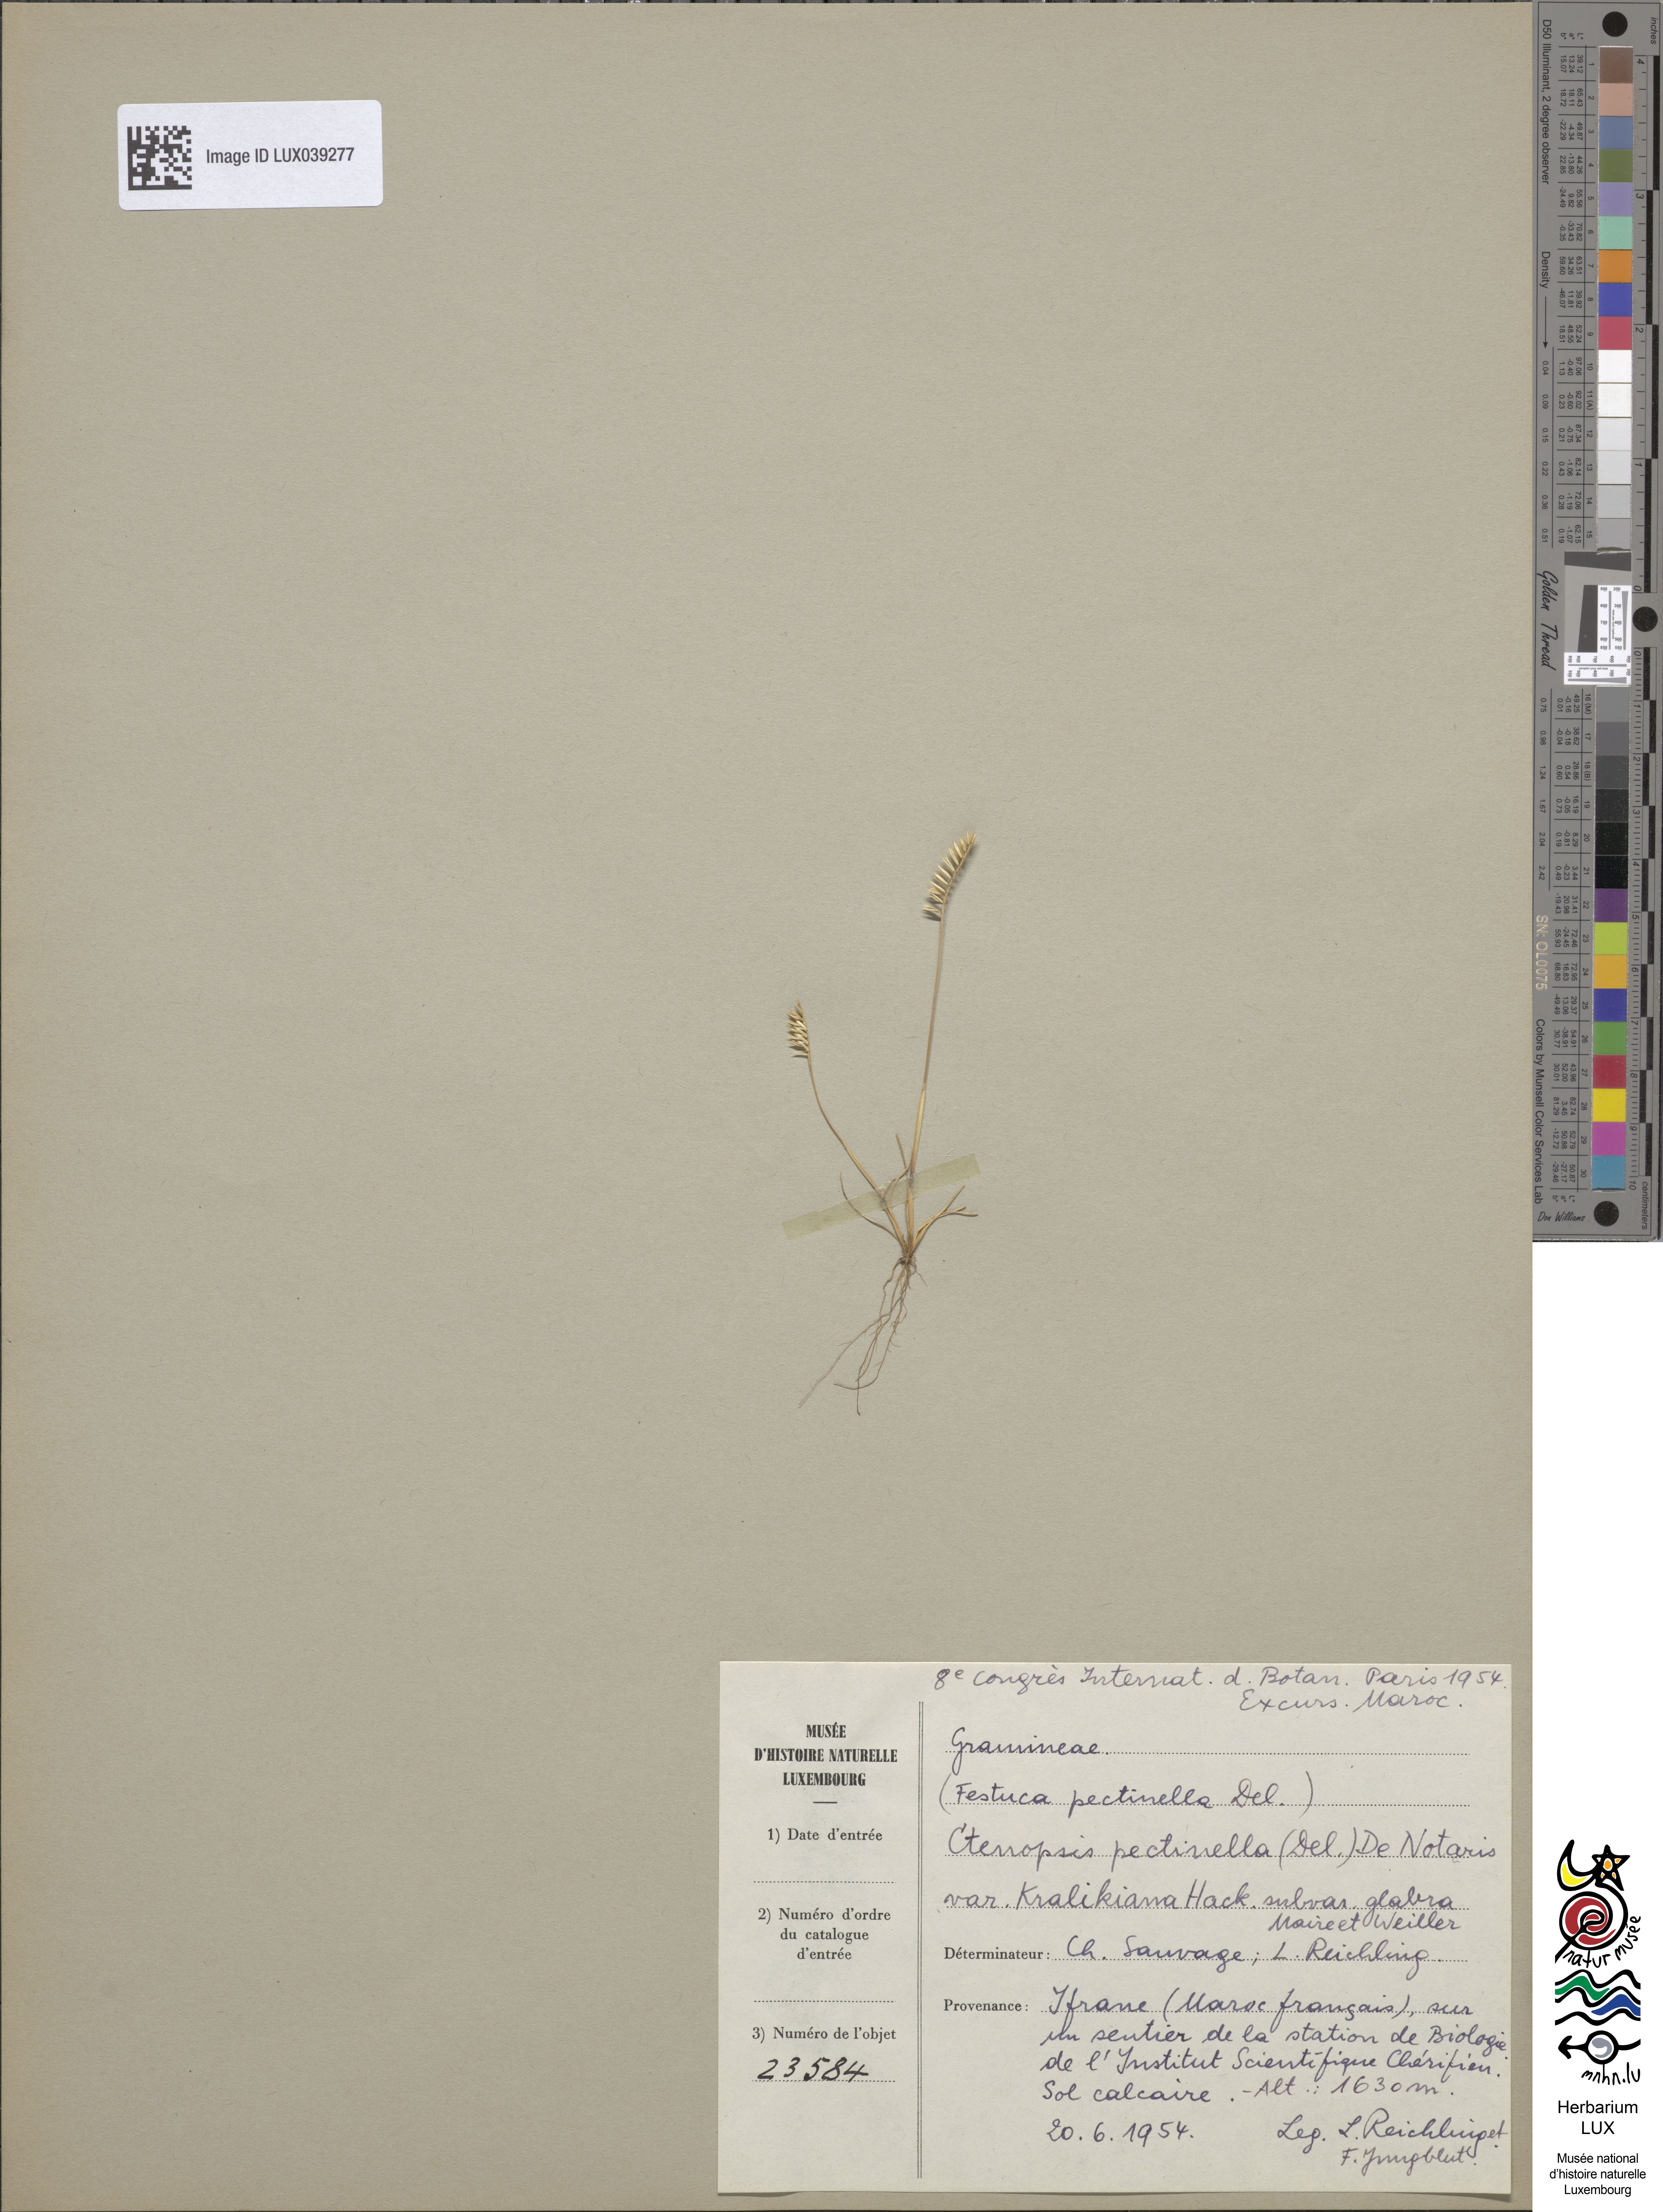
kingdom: Plantae
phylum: Tracheophyta
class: Liliopsida
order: Poales
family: Poaceae
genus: Festuca
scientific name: Festuca pectinella
